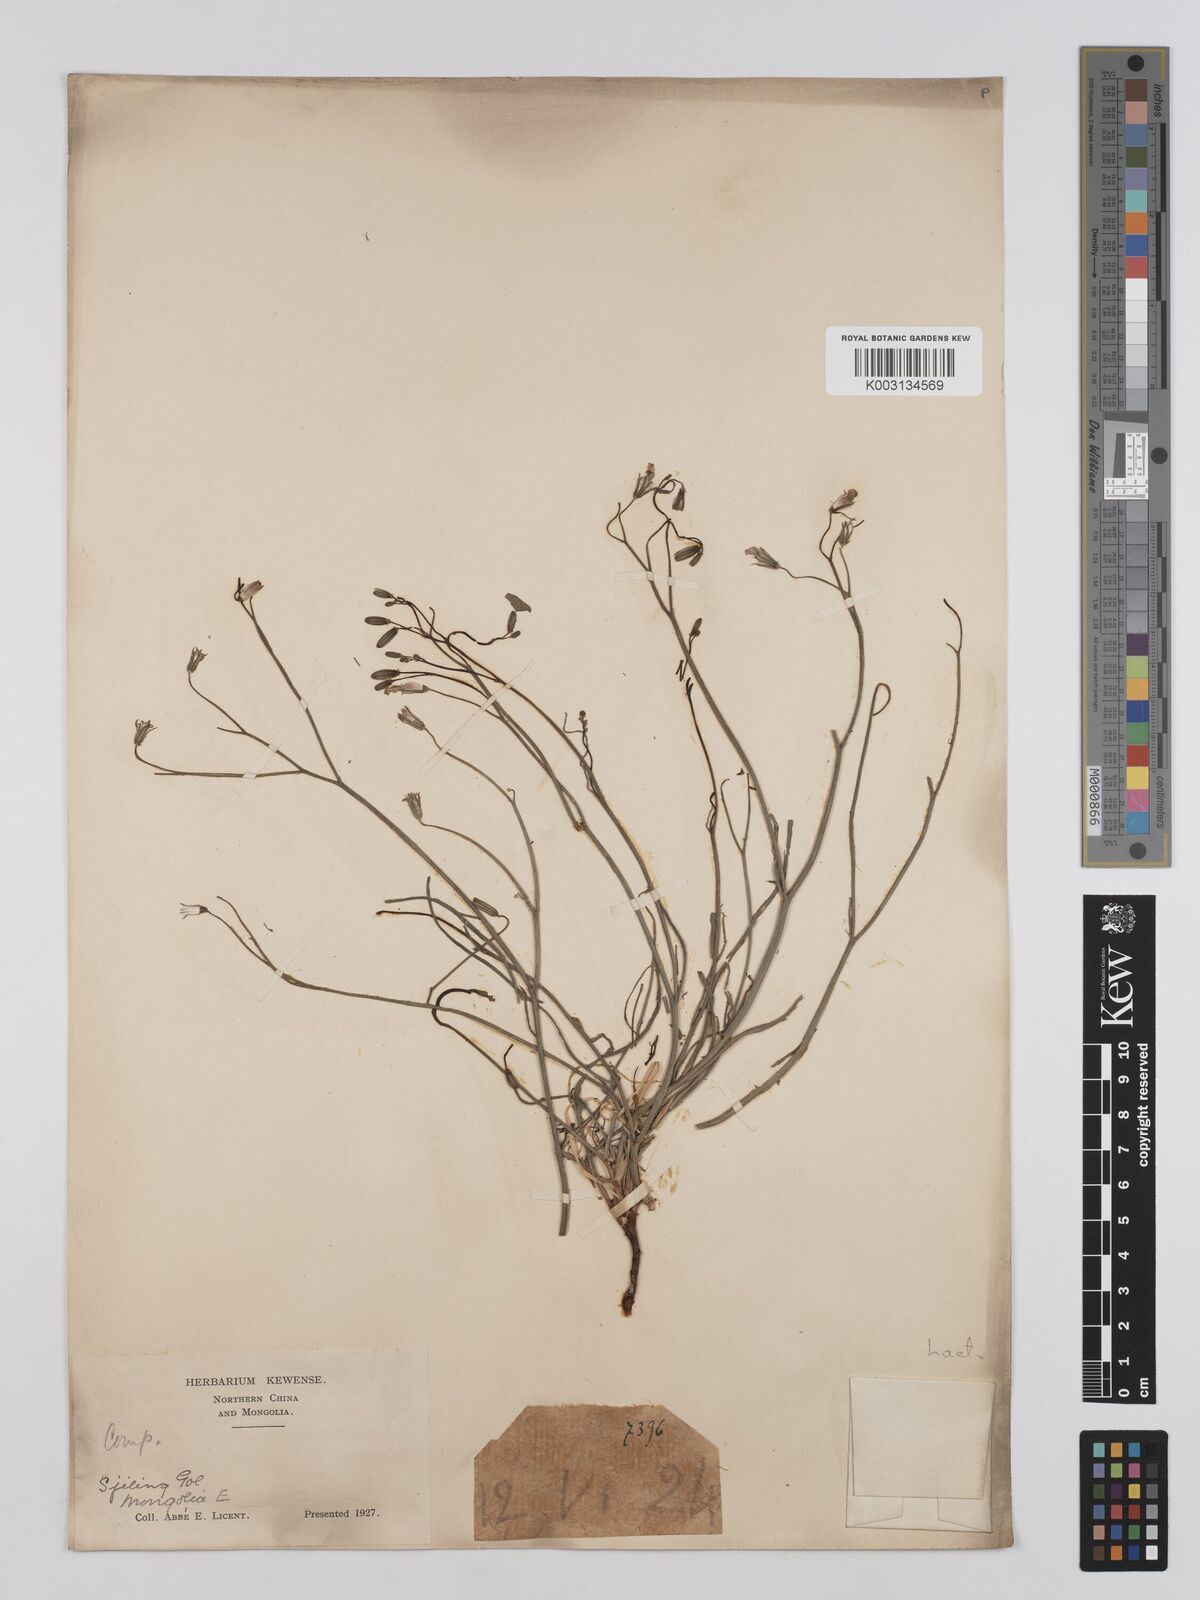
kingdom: Plantae
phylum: Tracheophyta
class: Magnoliopsida
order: Asterales
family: Asteraceae
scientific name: Asteraceae
